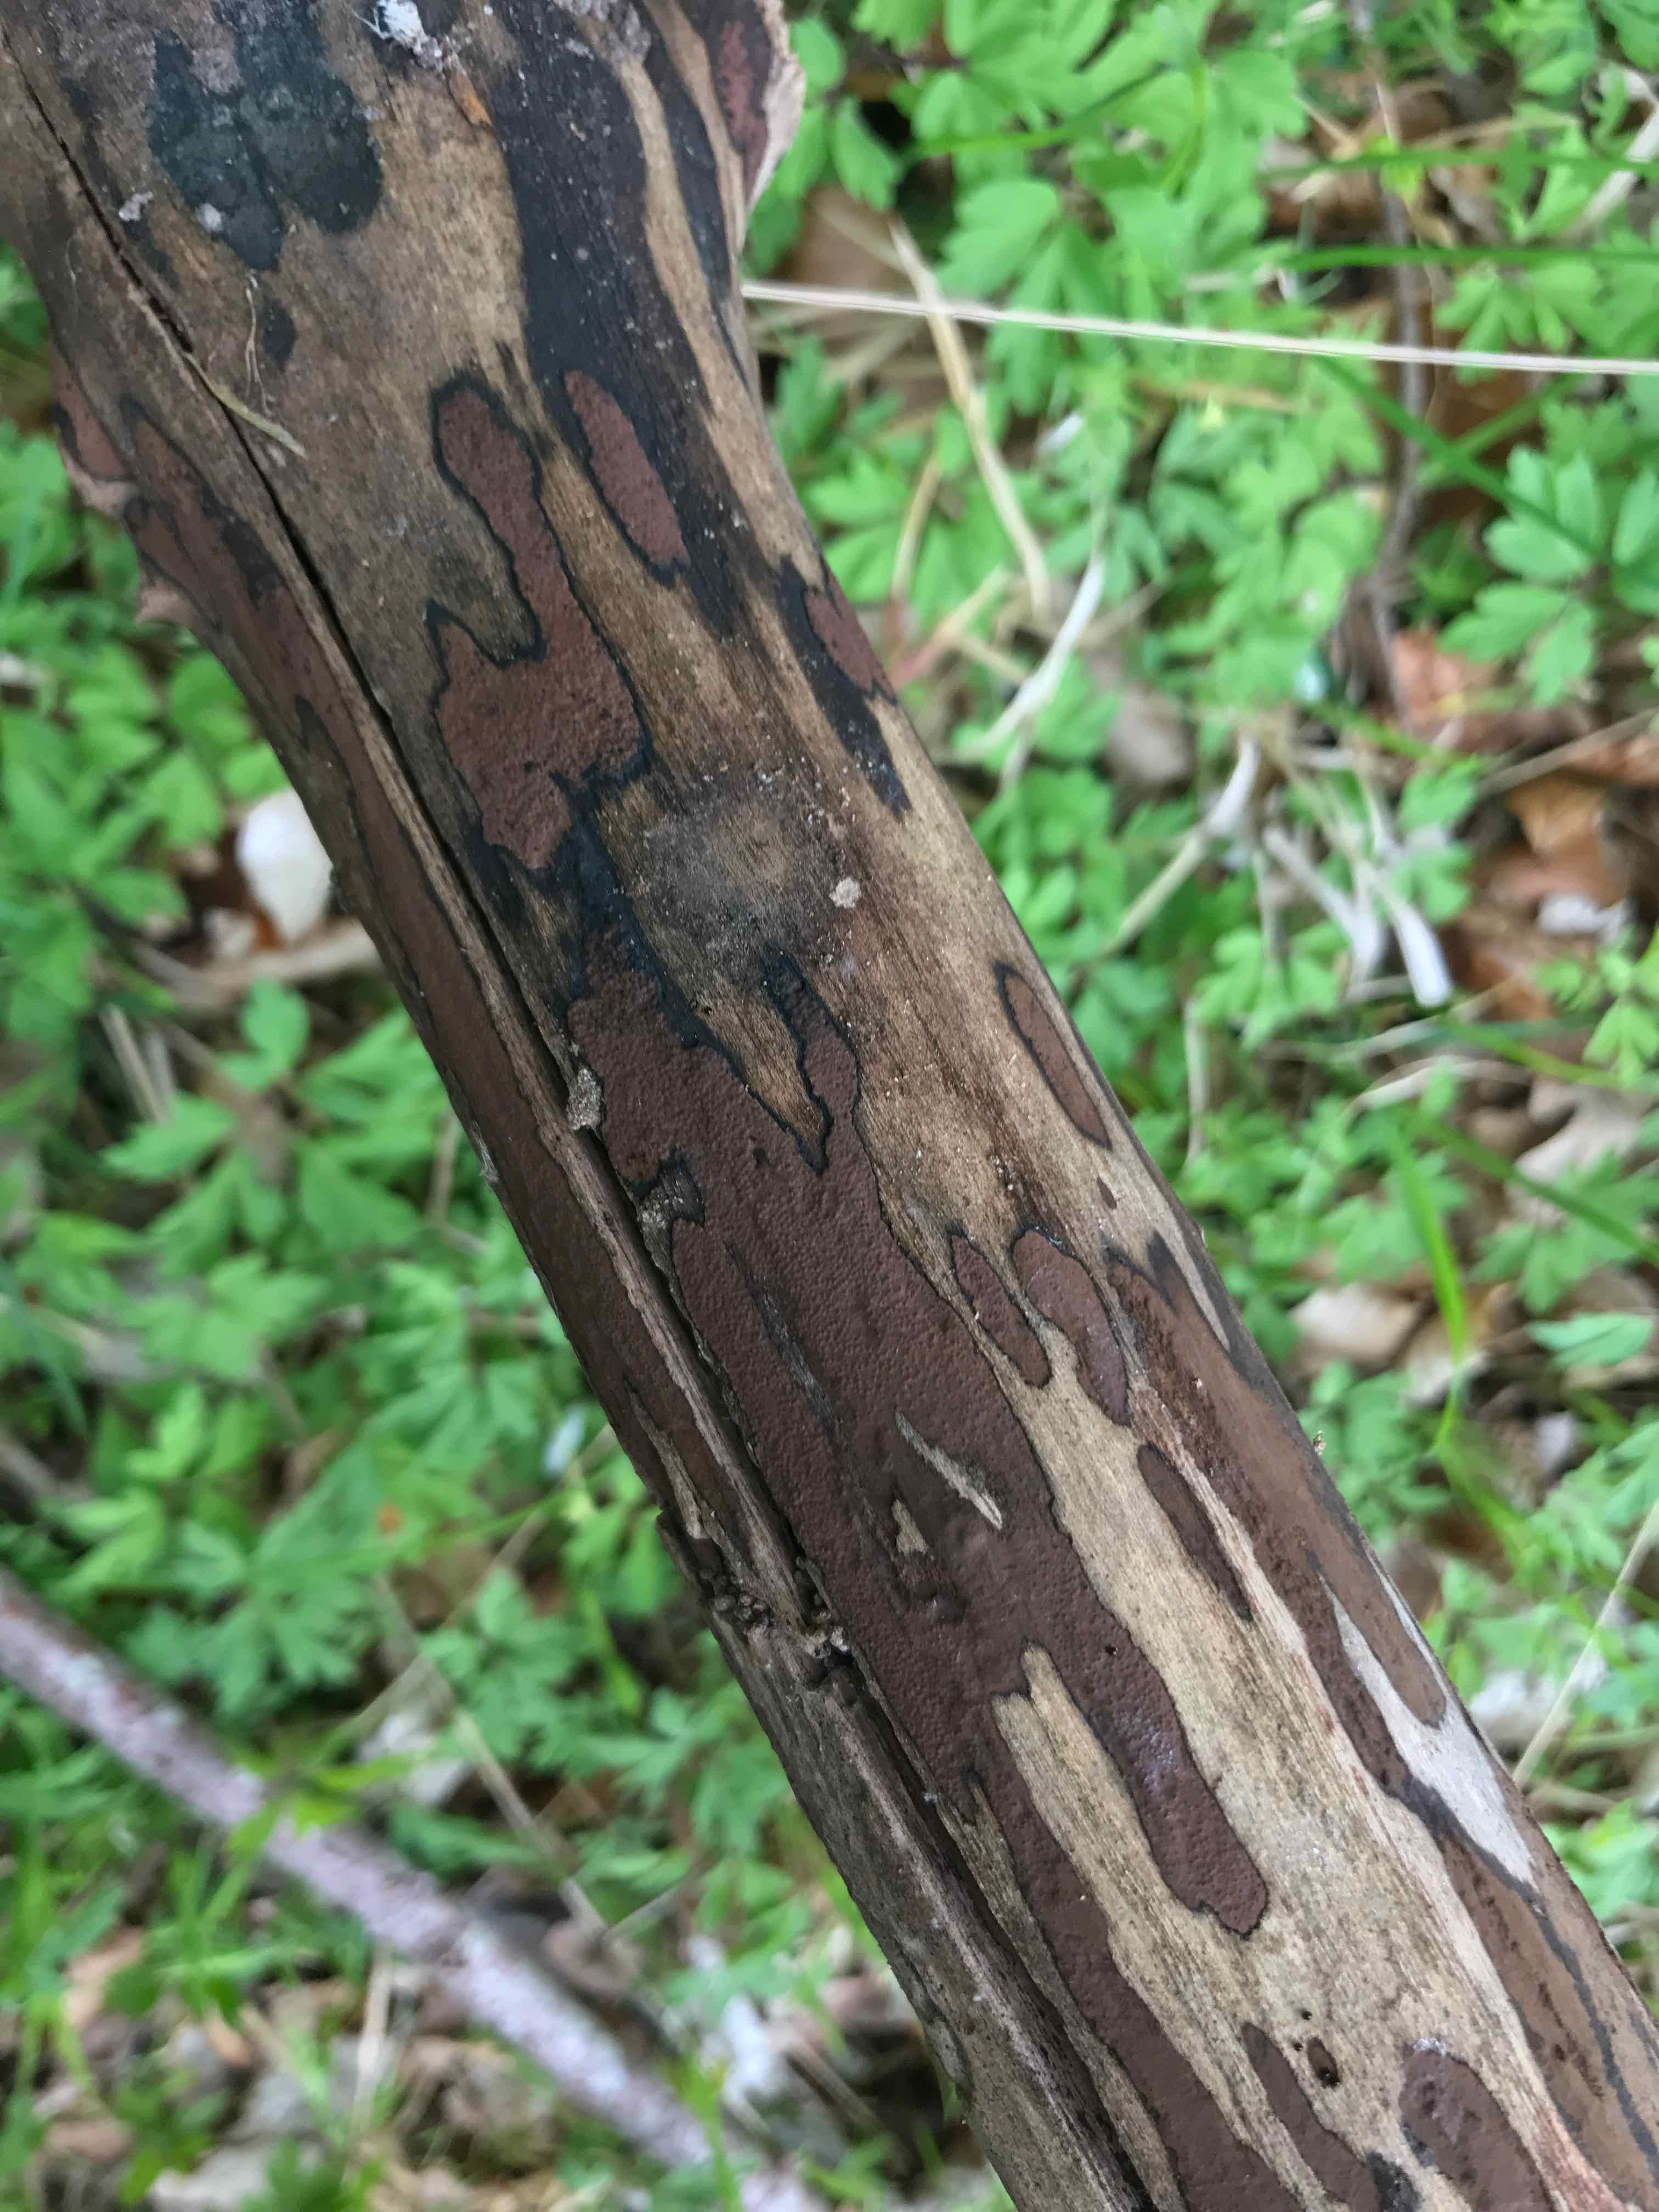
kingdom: Fungi
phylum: Ascomycota
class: Sordariomycetes
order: Xylariales
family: Hypoxylaceae
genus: Hypoxylon
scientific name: Hypoxylon petriniae
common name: nedsænket kulbær
